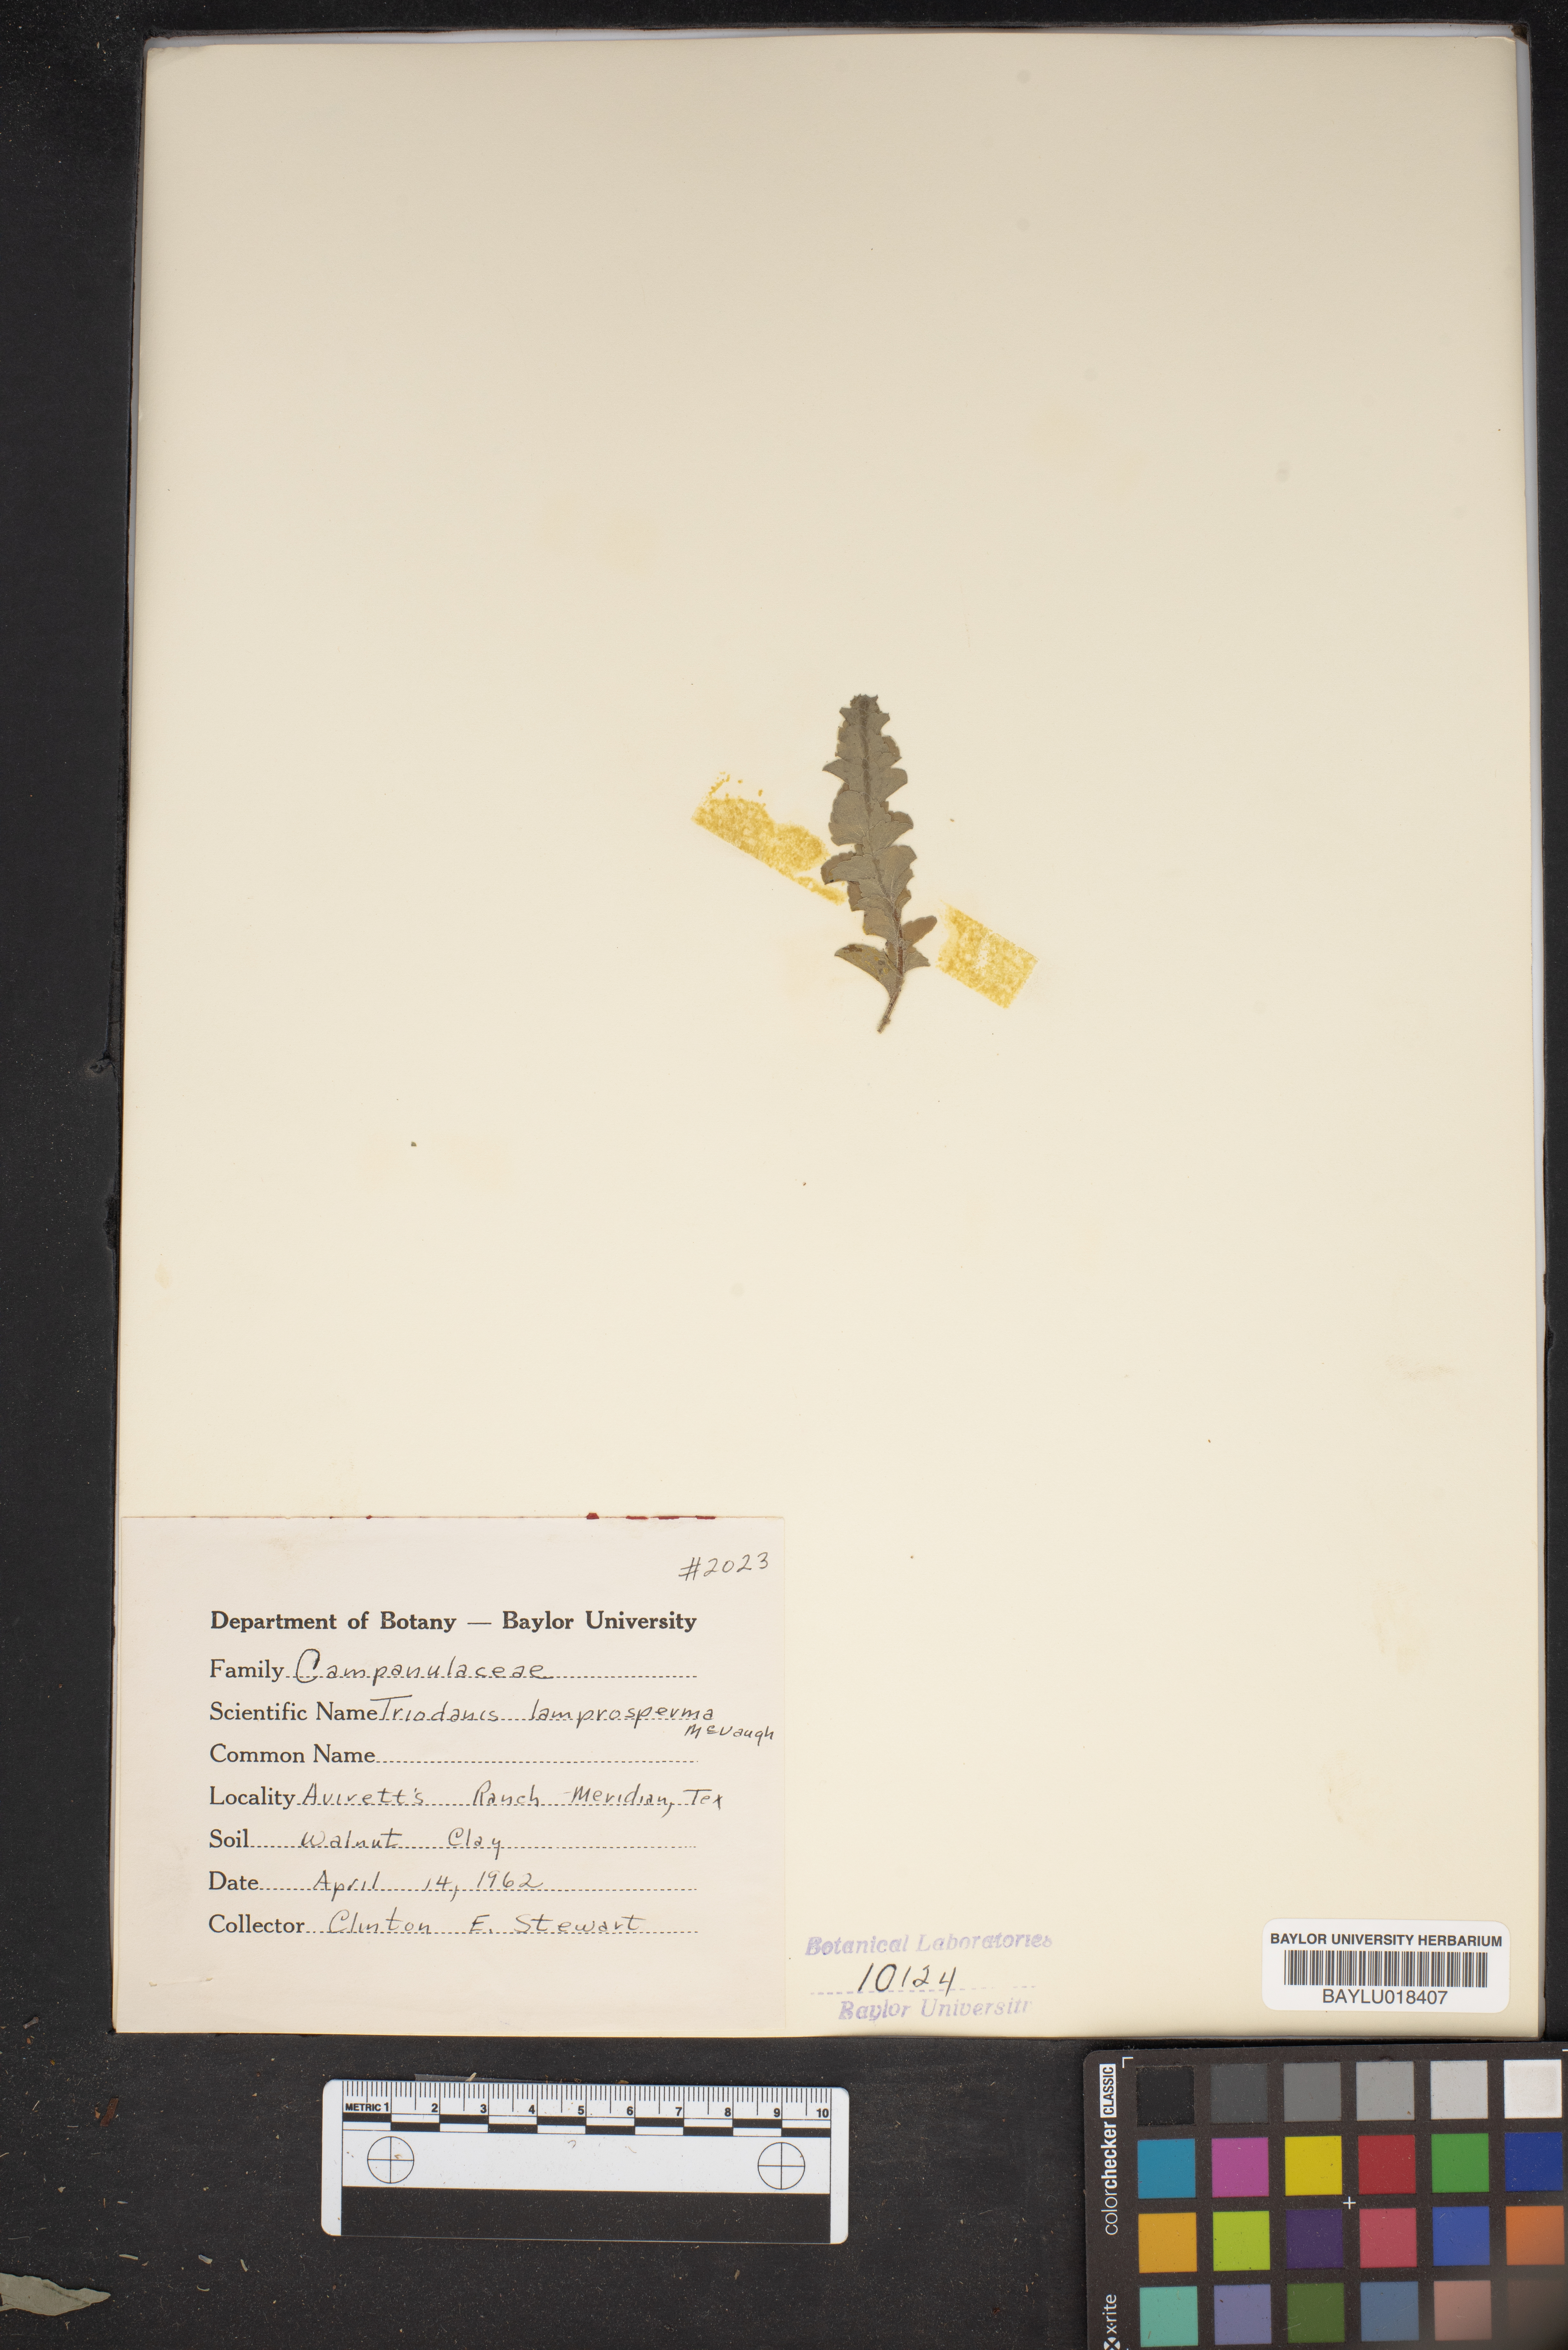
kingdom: Plantae
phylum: Tracheophyta
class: Magnoliopsida
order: Asterales
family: Campanulaceae
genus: Triodanis
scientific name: Triodanis lamprosperma
